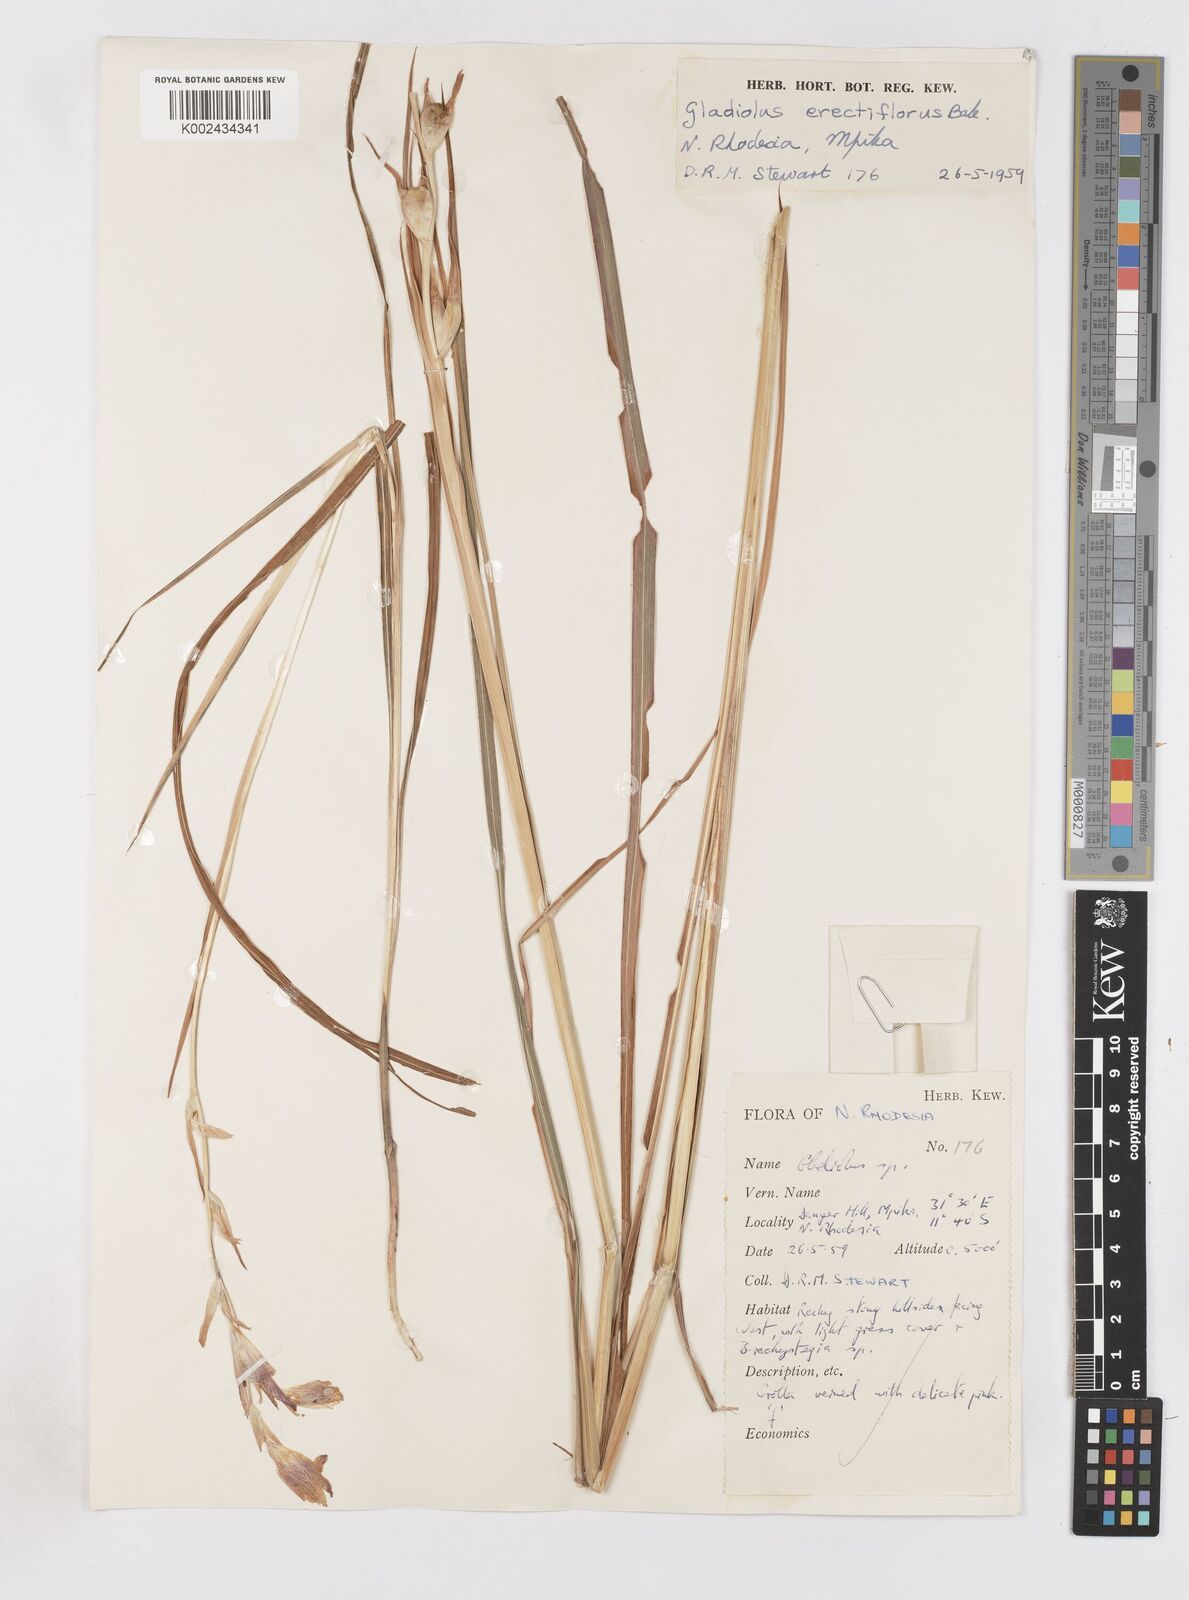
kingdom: Plantae
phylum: Tracheophyta
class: Liliopsida
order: Asparagales
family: Iridaceae
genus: Gladiolus
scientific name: Gladiolus erectiflorus
